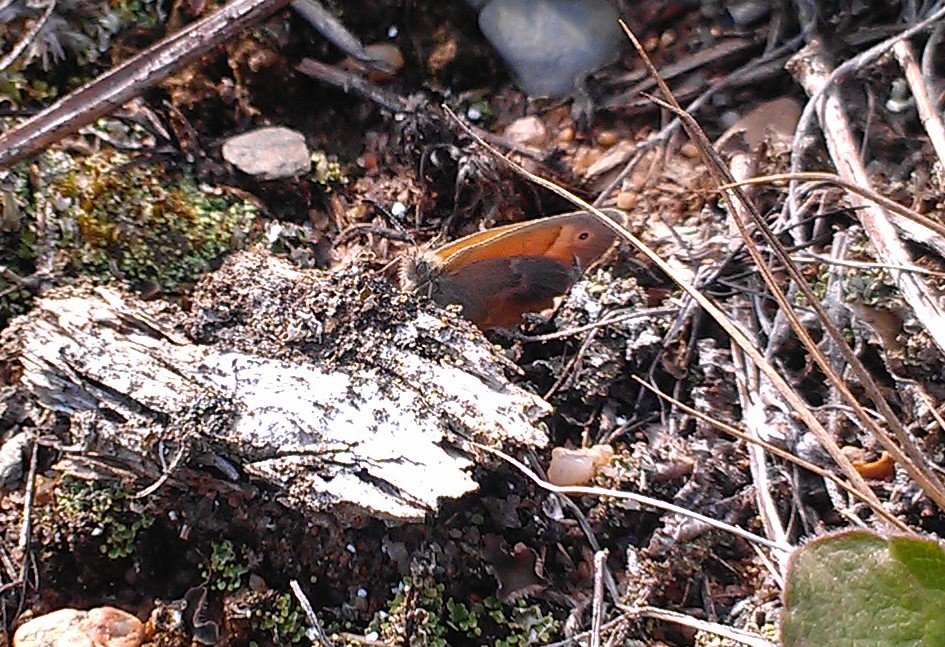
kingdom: Animalia
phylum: Arthropoda
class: Insecta
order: Lepidoptera
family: Nymphalidae
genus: Coenonympha
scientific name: Coenonympha tullia
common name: Large Heath
